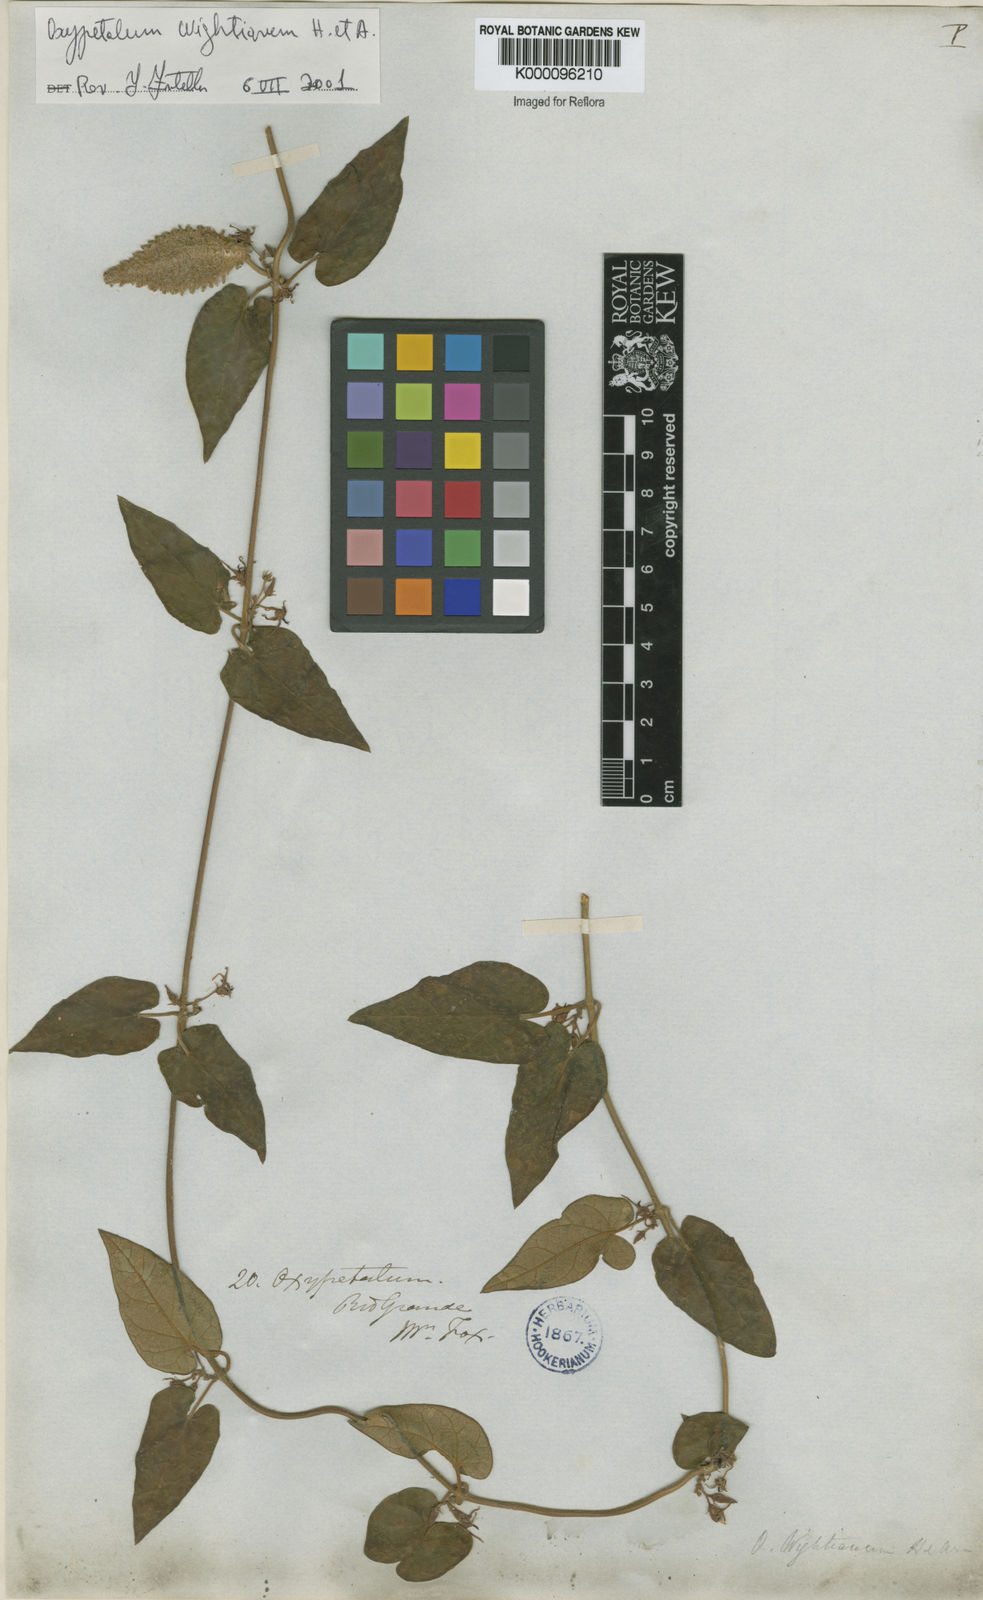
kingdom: Plantae
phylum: Tracheophyta
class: Magnoliopsida
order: Gentianales
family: Apocynaceae
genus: Oxypetalum
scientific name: Oxypetalum wightianum
